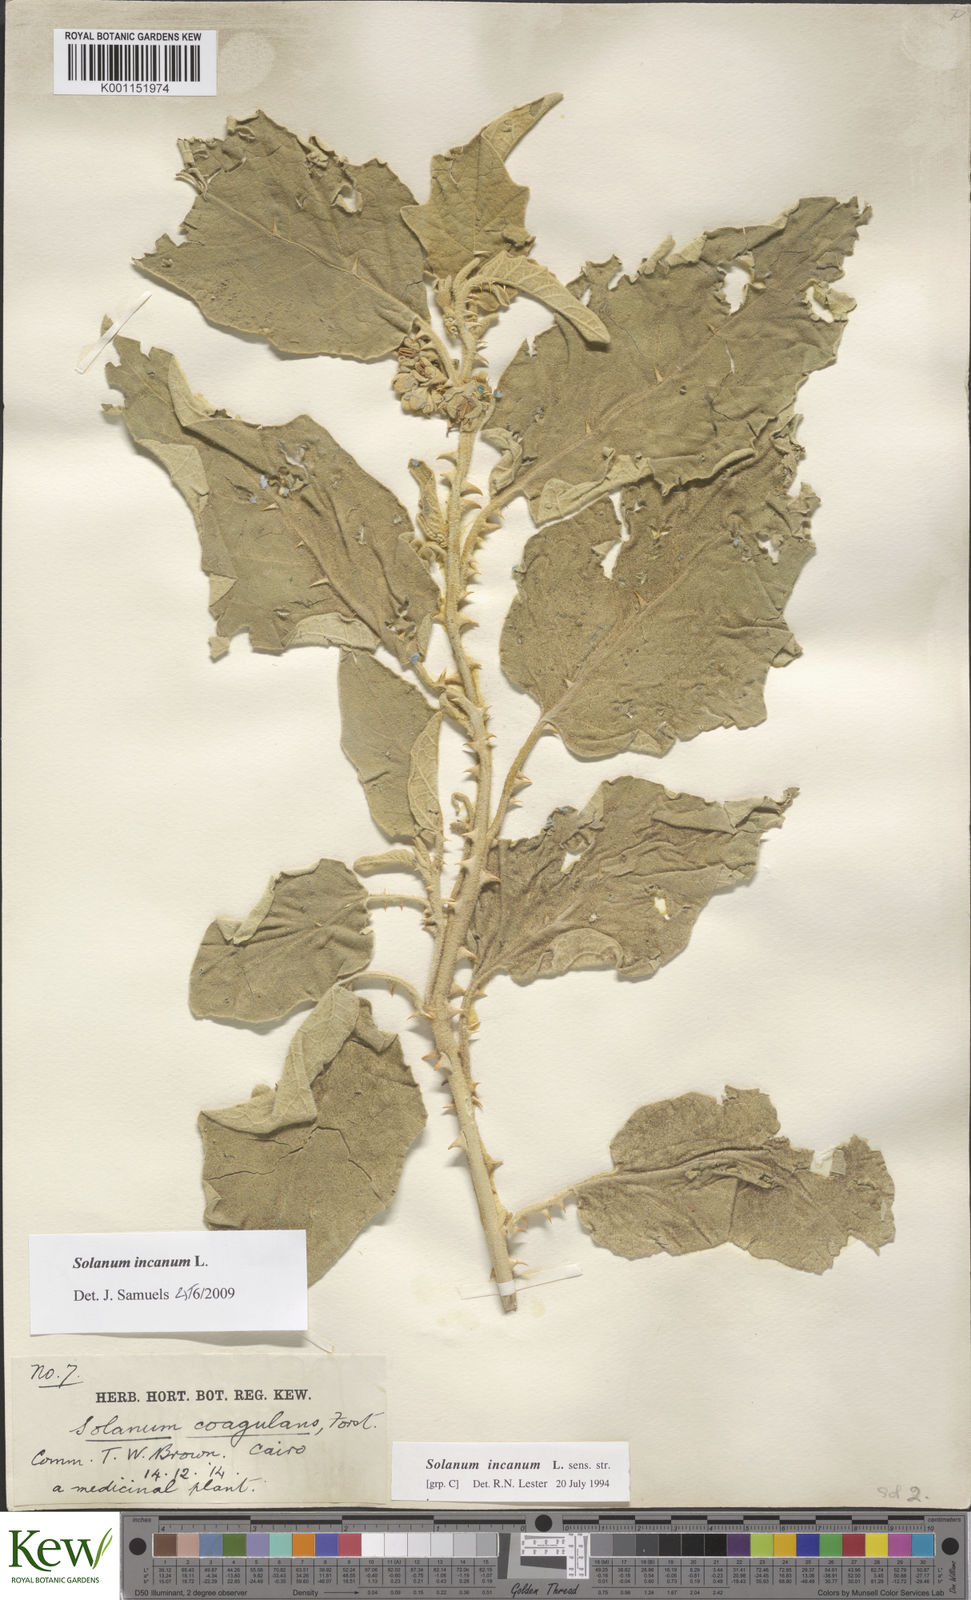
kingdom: Plantae
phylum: Tracheophyta
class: Magnoliopsida
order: Solanales
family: Solanaceae
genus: Solanum
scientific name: Solanum incanum
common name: Bitter apple
